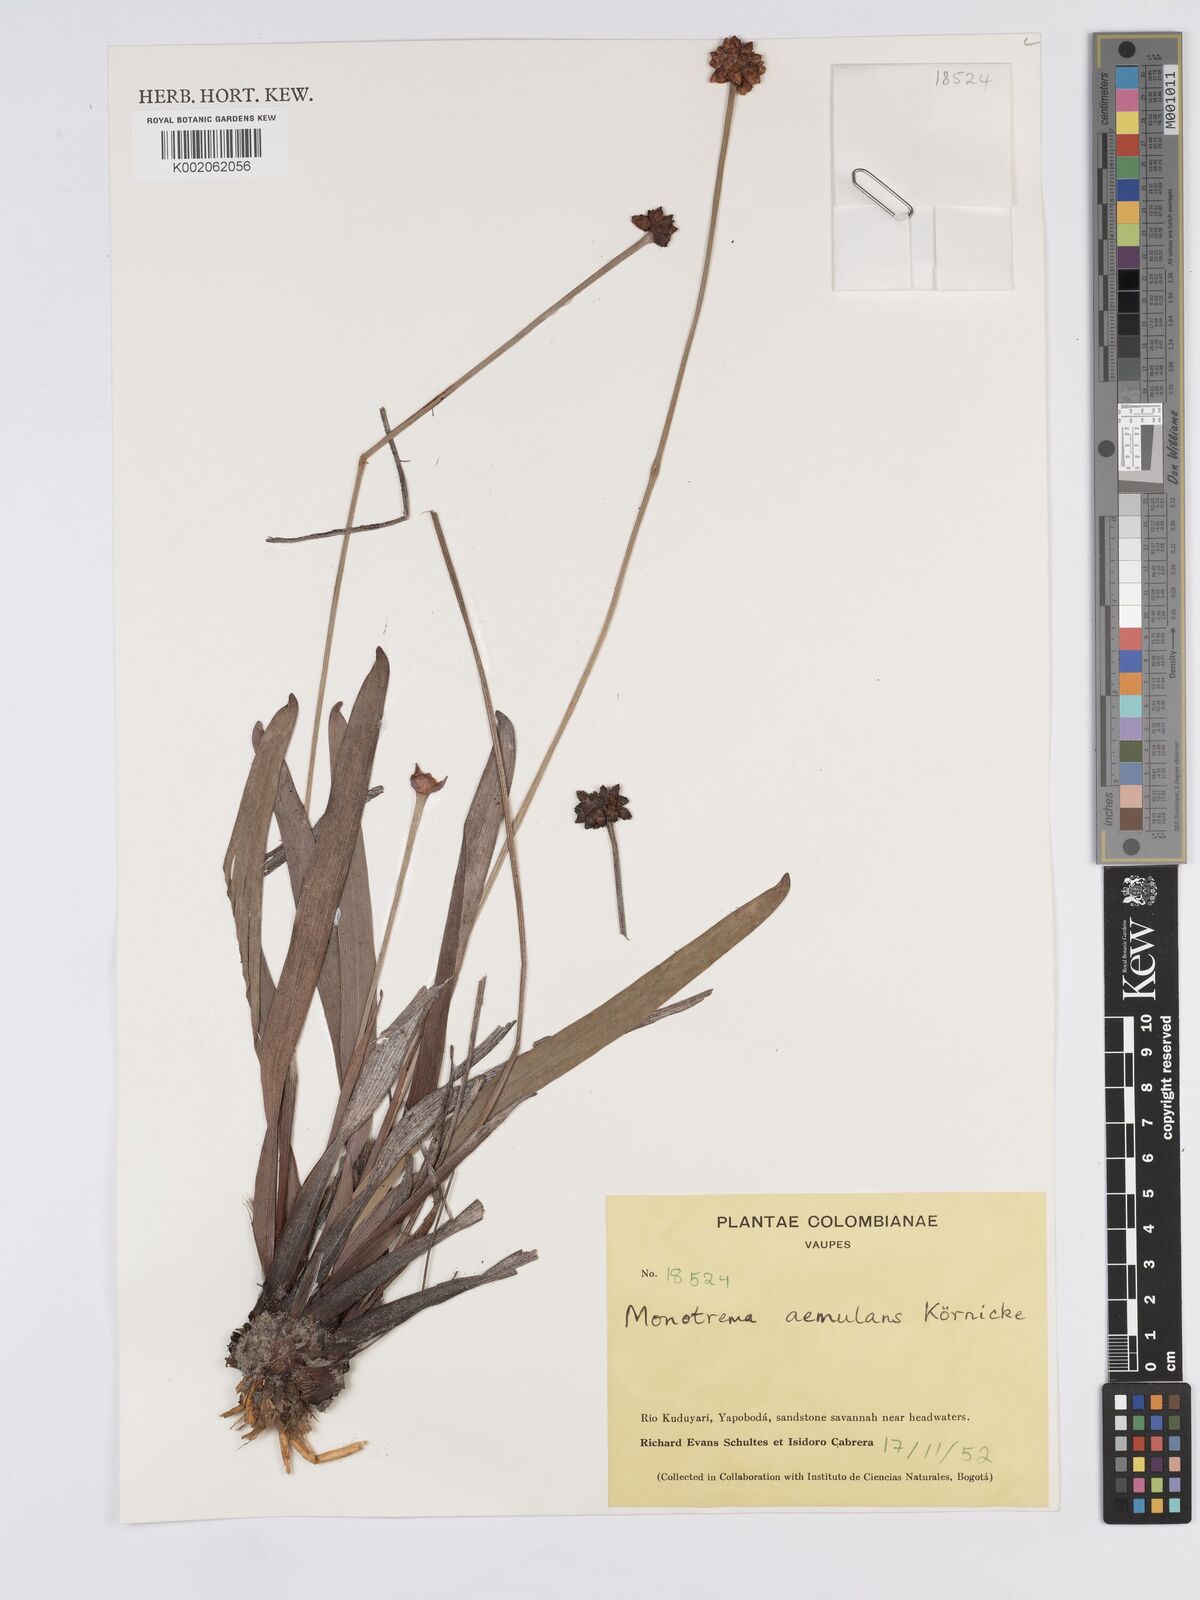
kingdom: Plantae
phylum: Tracheophyta
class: Liliopsida
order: Poales
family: Rapateaceae
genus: Monotrema
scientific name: Monotrema aemulans
